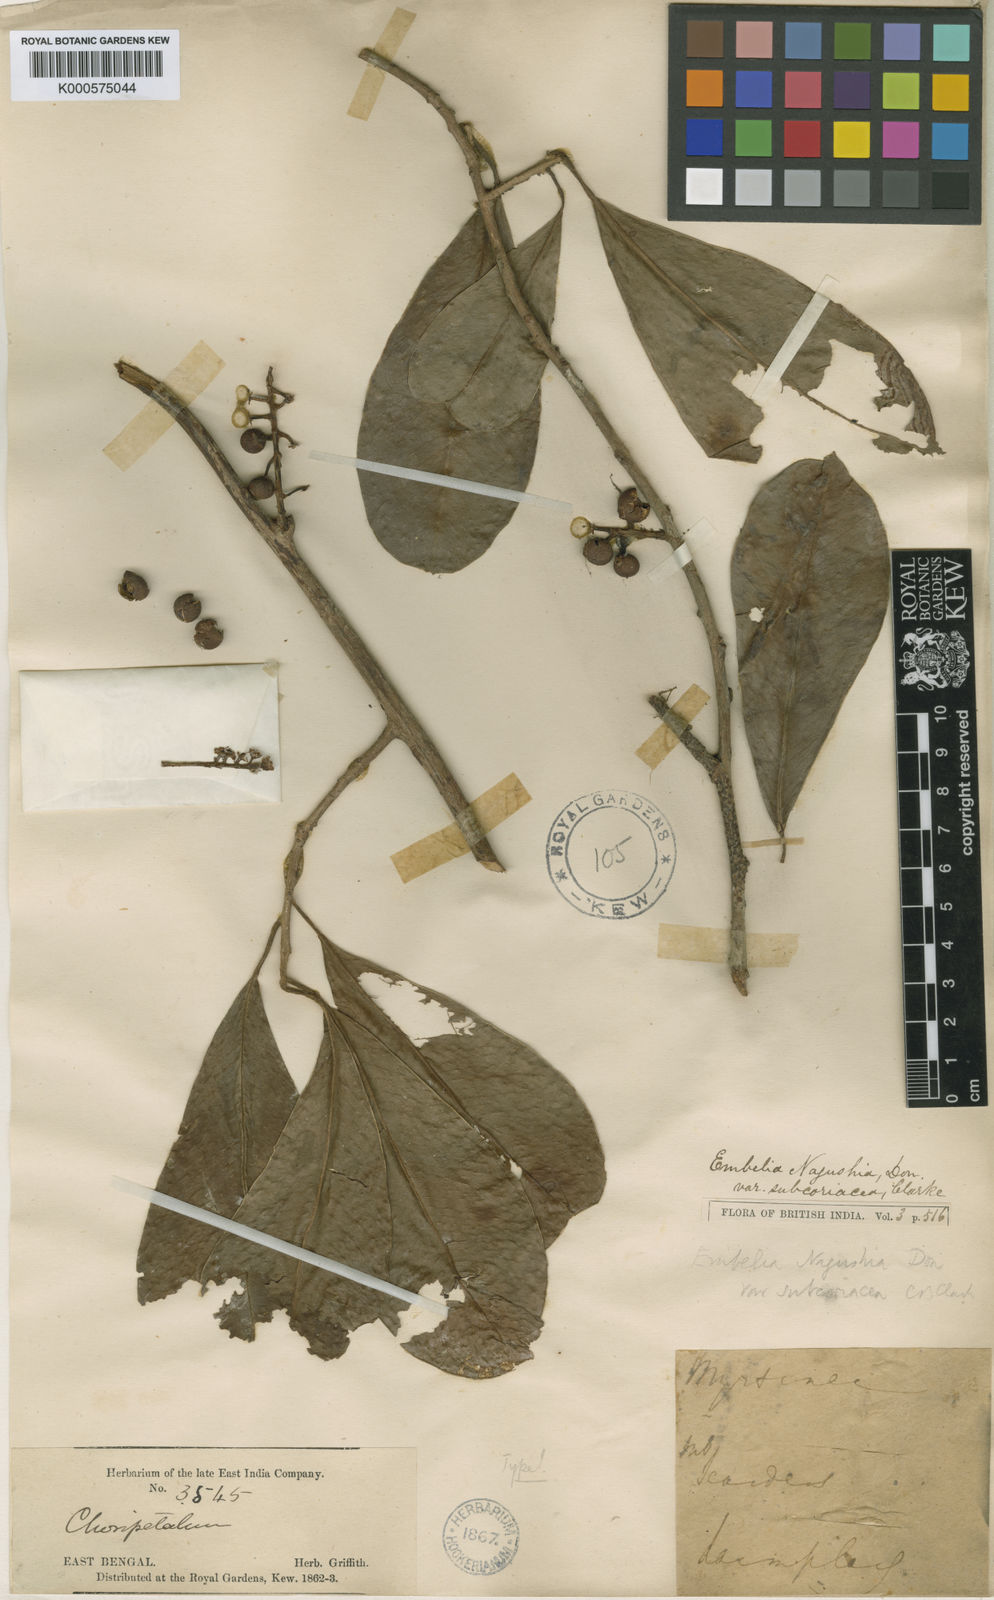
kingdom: Plantae
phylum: Tracheophyta
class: Magnoliopsida
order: Ericales
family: Primulaceae
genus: Embelia
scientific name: Embelia subcoriacea
